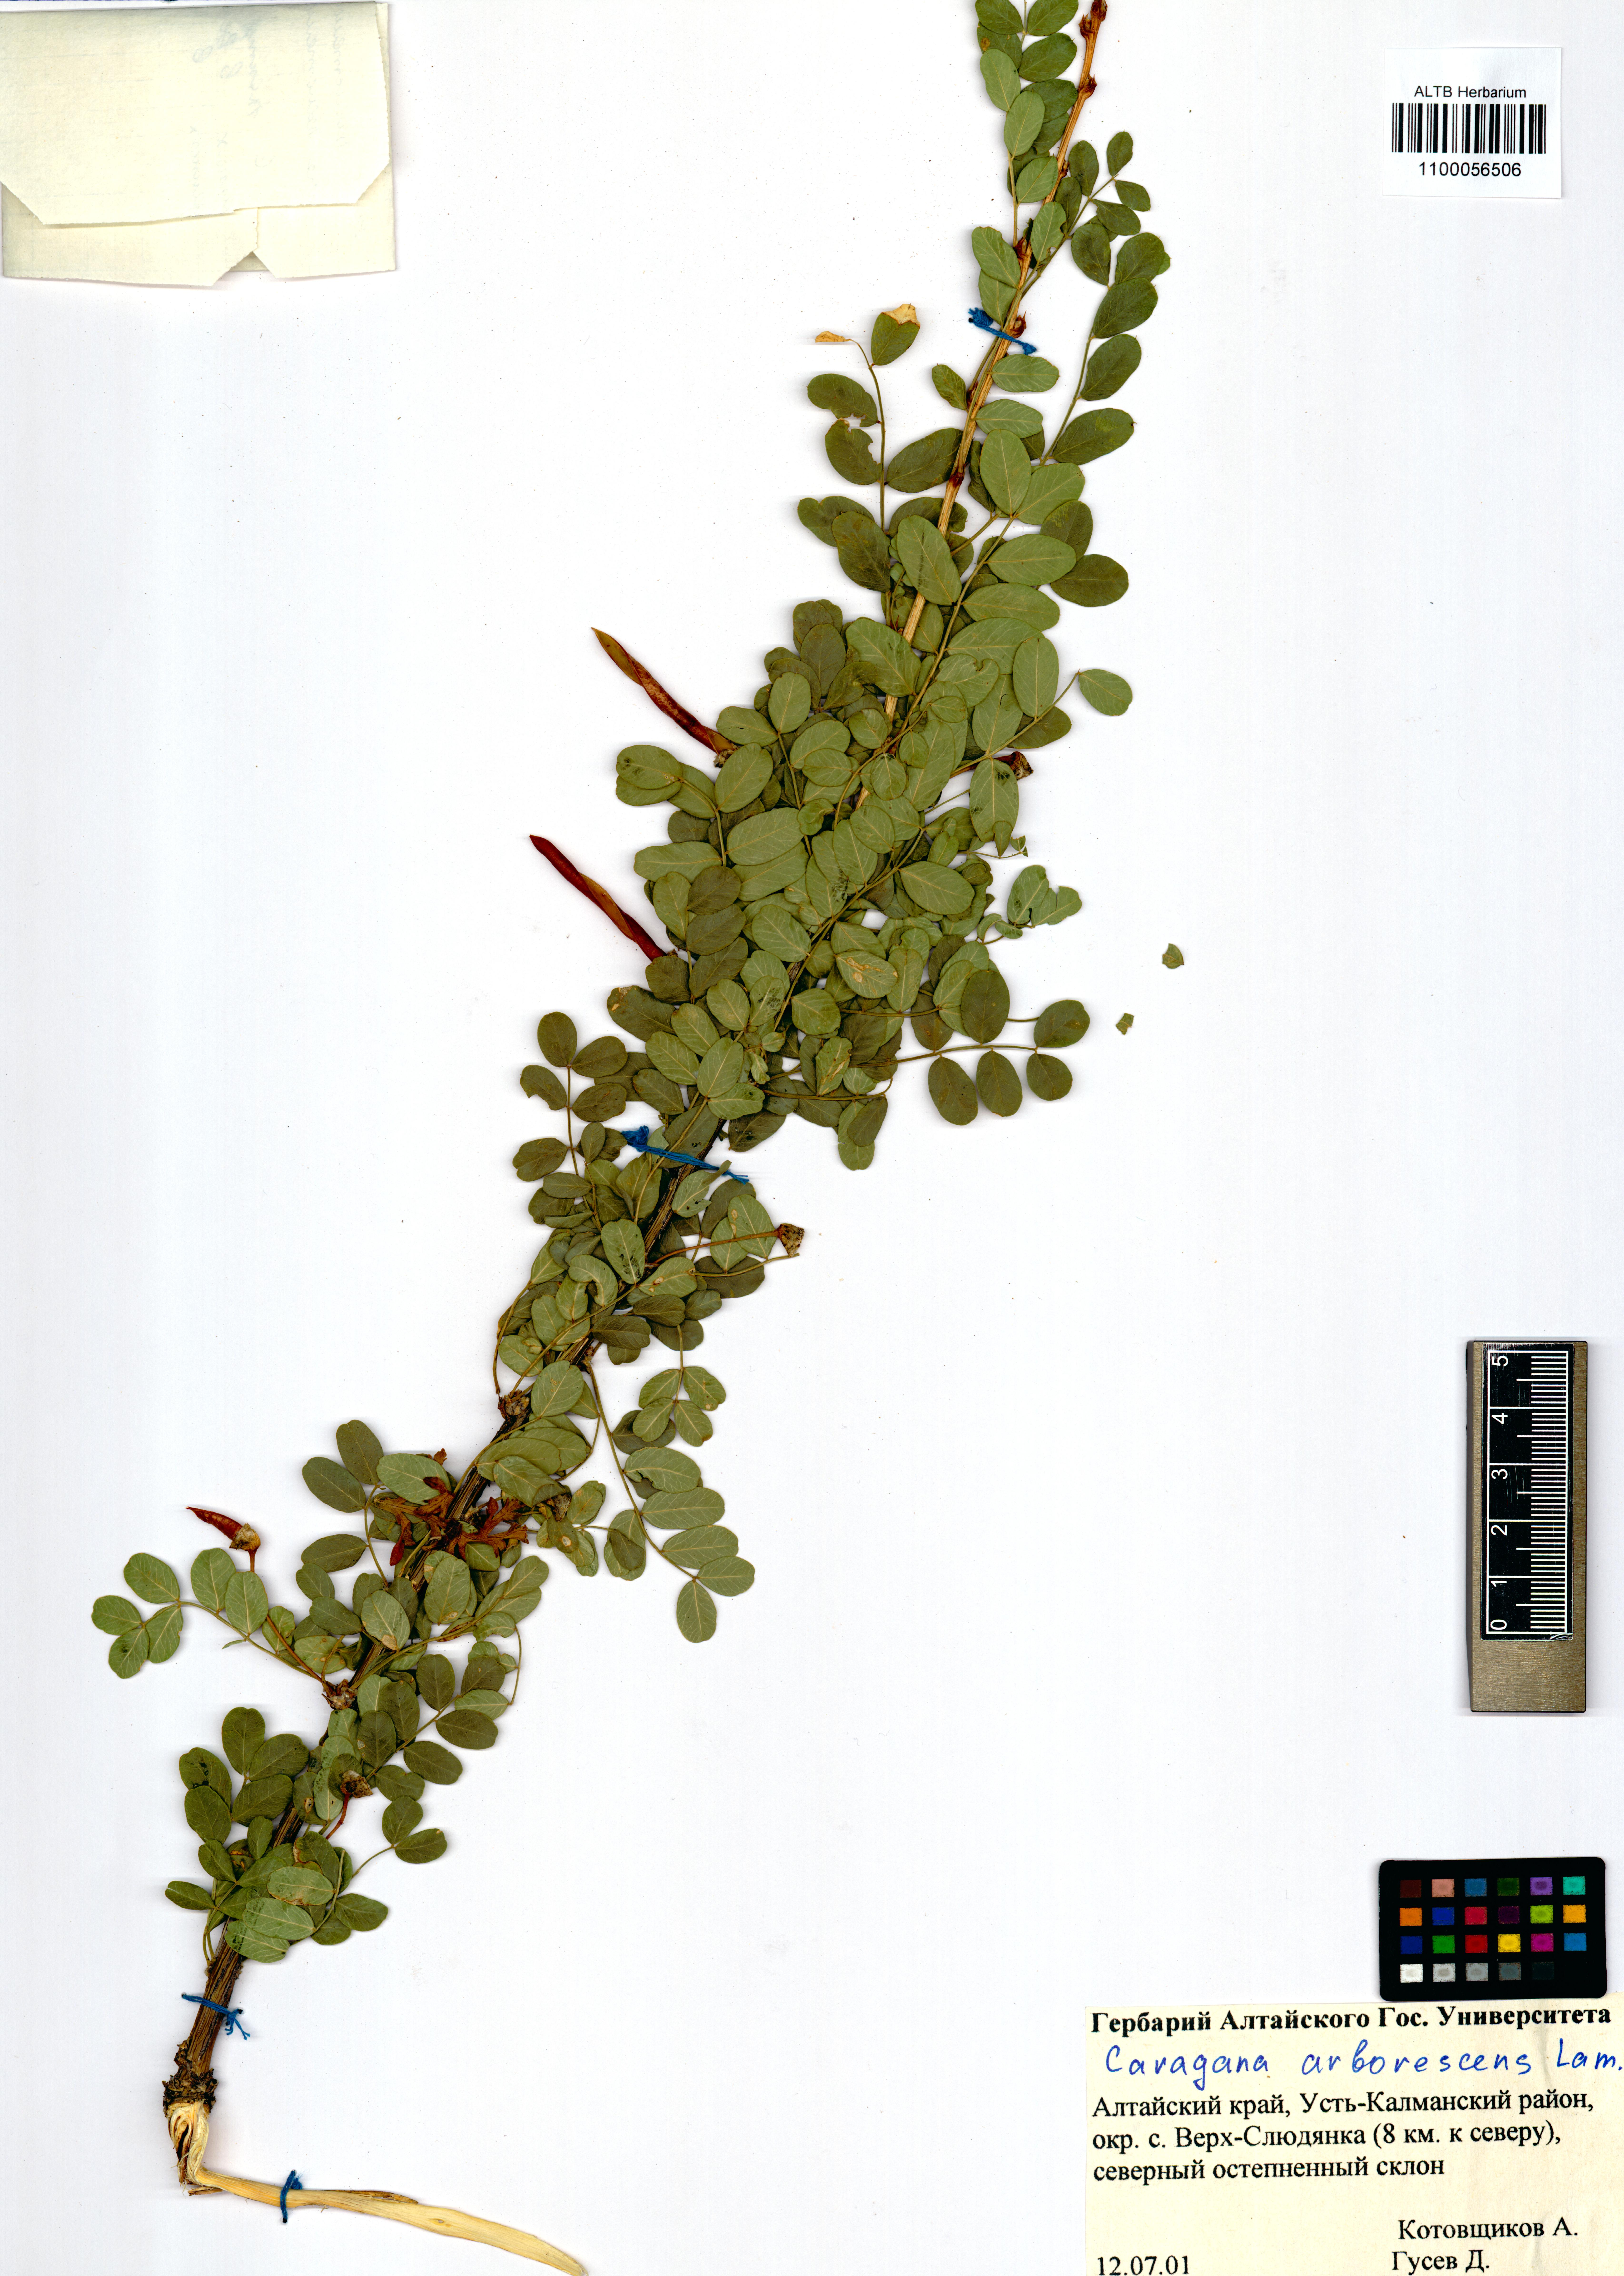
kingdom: Plantae
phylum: Tracheophyta
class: Magnoliopsida
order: Fabales
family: Fabaceae
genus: Caragana
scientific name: Caragana arborescens
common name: Siberian peashrub
